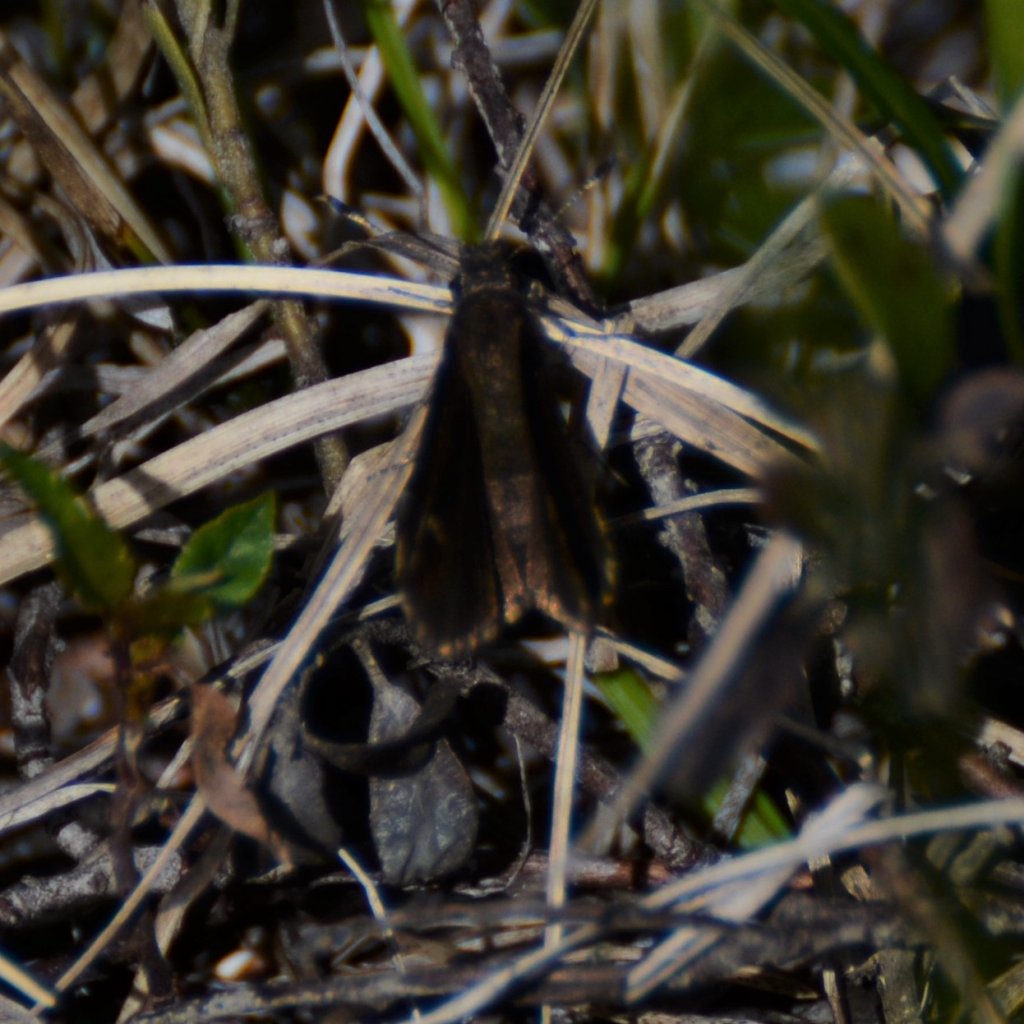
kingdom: Animalia
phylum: Arthropoda
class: Insecta
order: Lepidoptera
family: Hesperiidae
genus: Mastor
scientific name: Mastor vialis
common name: Common Roadside-Skipper
